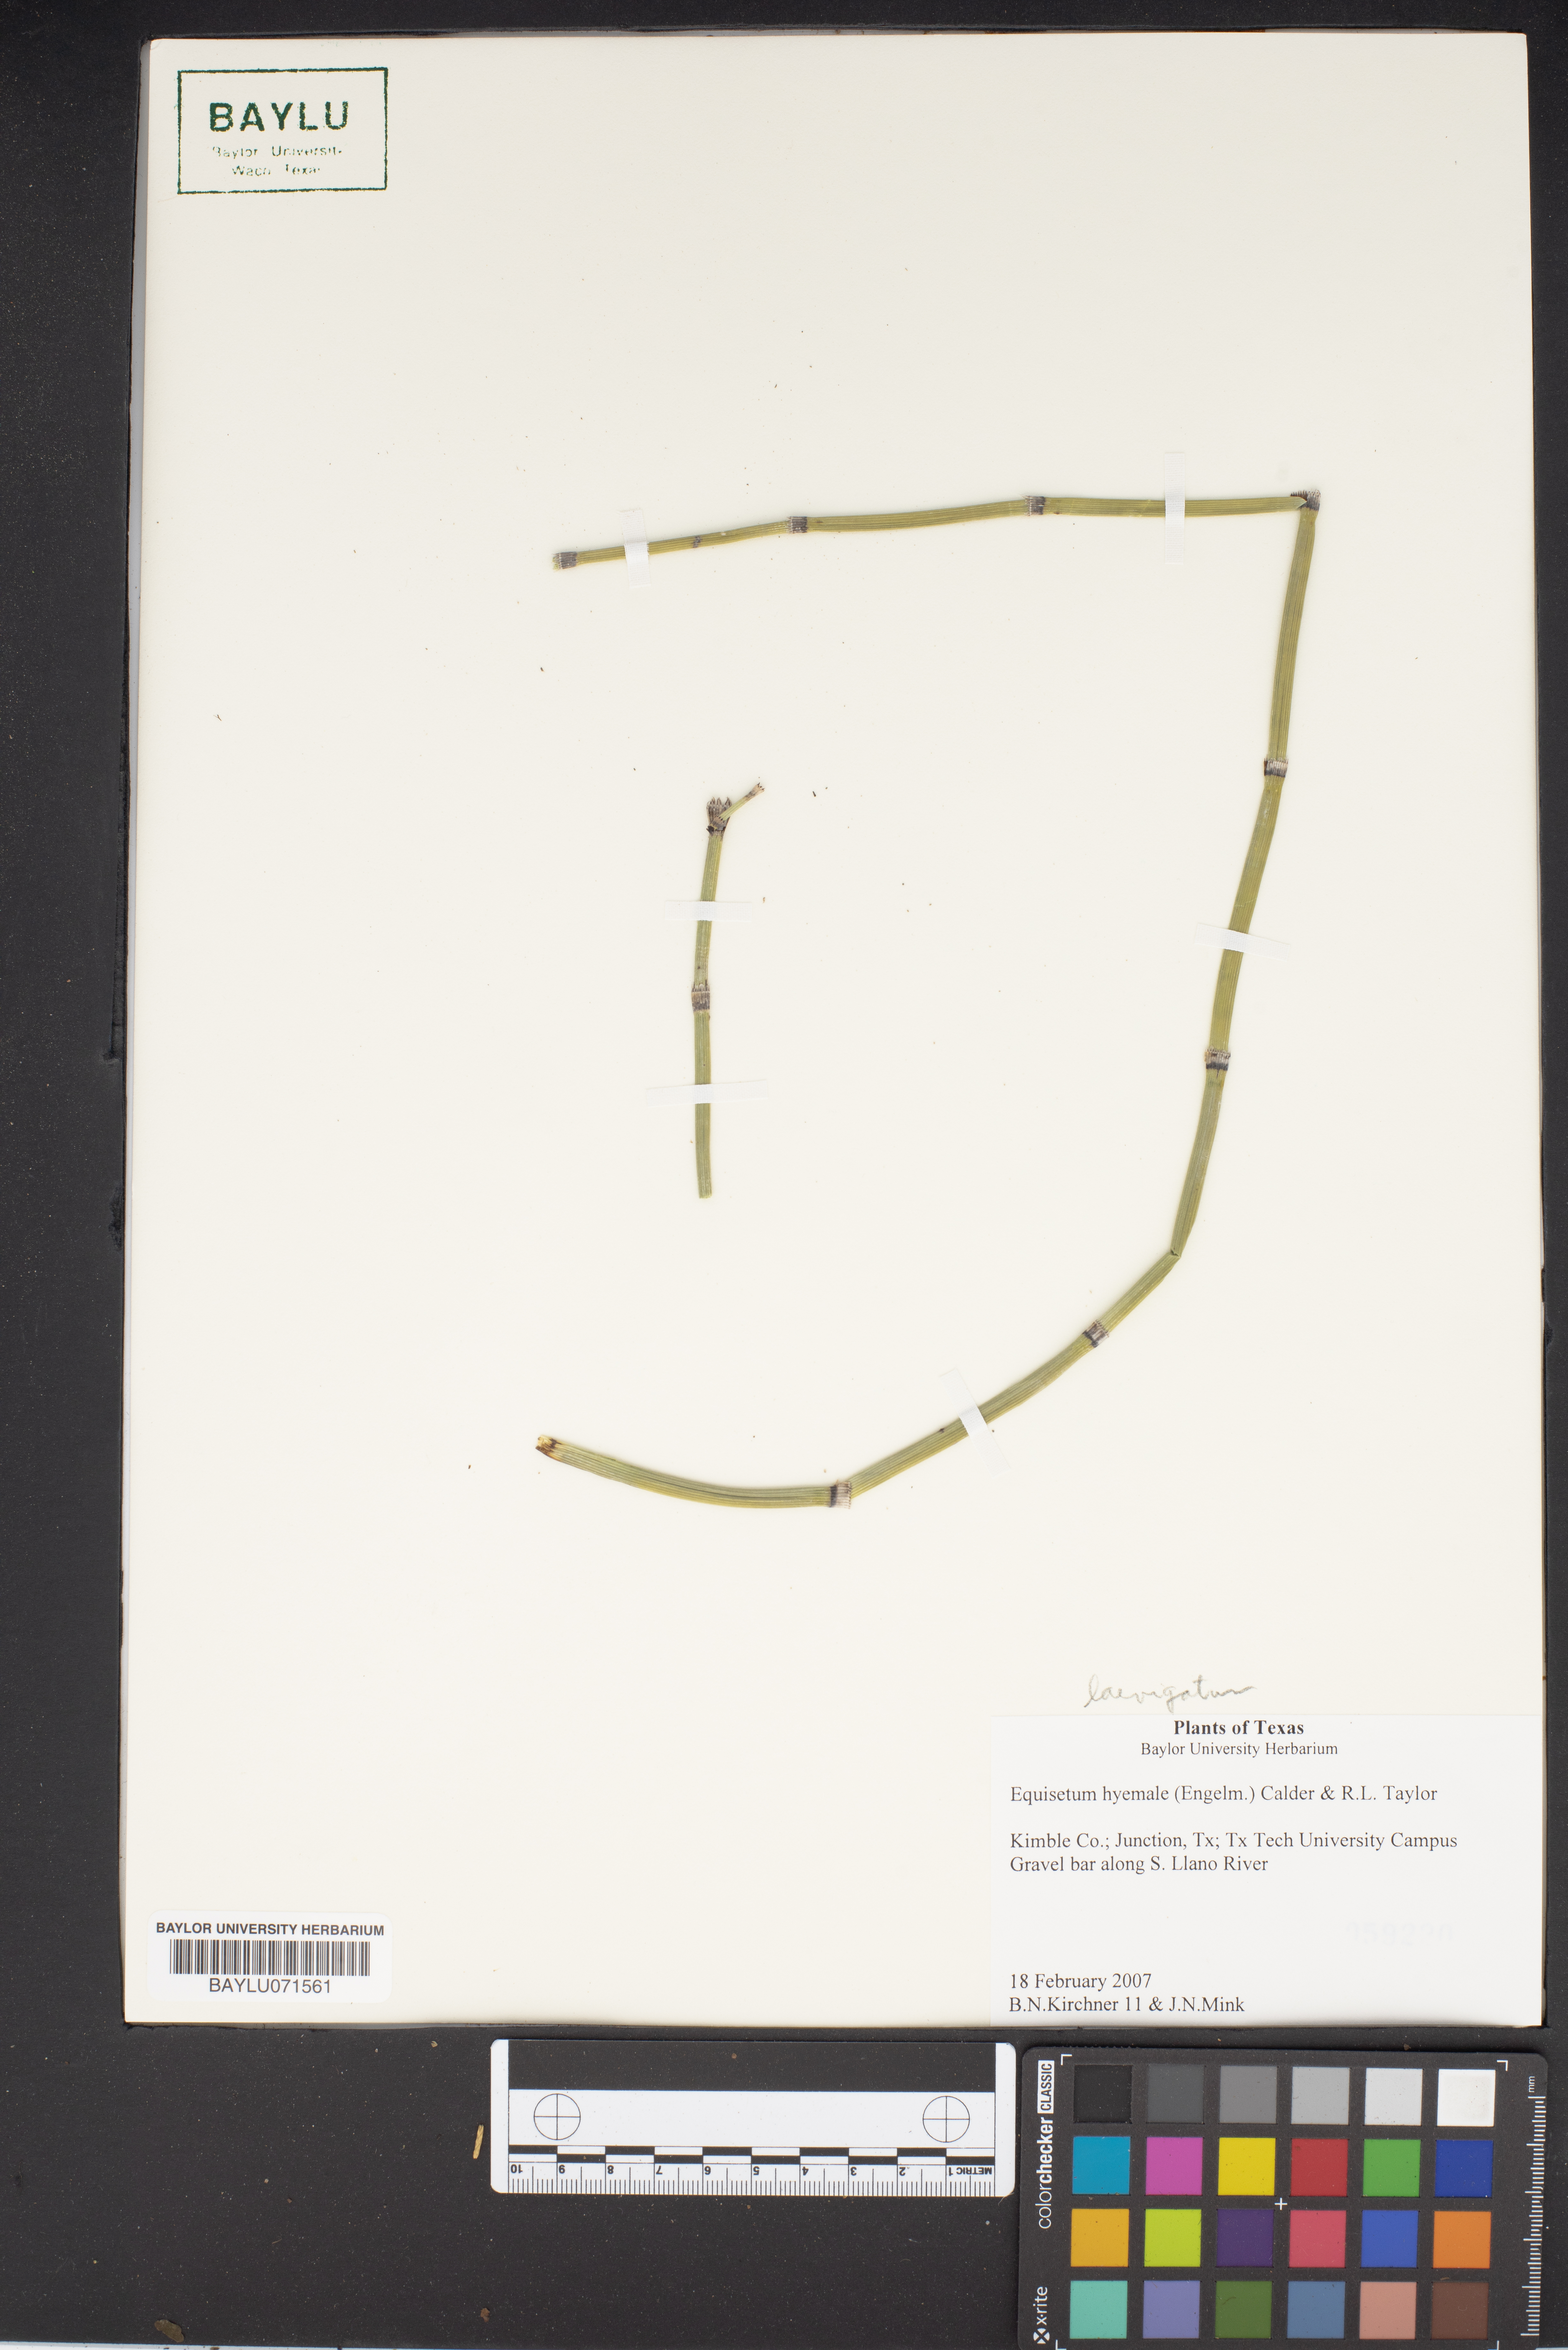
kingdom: Plantae
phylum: Tracheophyta
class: Polypodiopsida
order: Equisetales
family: Equisetaceae
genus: Equisetum
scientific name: Equisetum hyemale
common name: Rough horsetail
